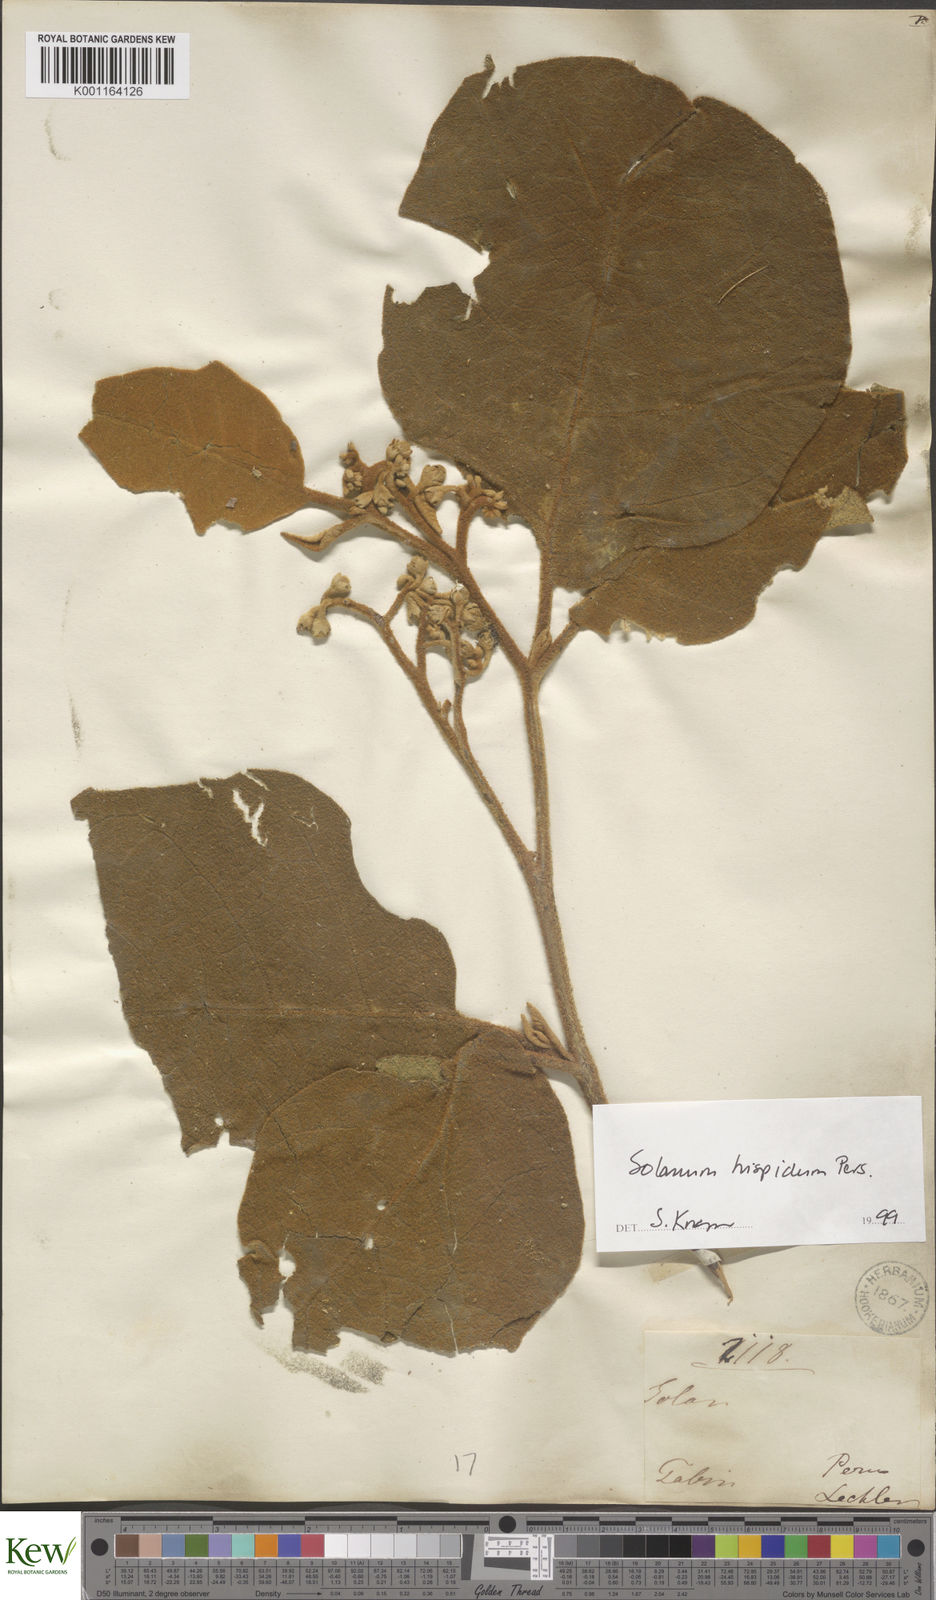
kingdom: Plantae
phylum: Tracheophyta
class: Magnoliopsida
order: Solanales
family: Solanaceae
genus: Solanum
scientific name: Solanum asperolanatum
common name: Devil's-fig
